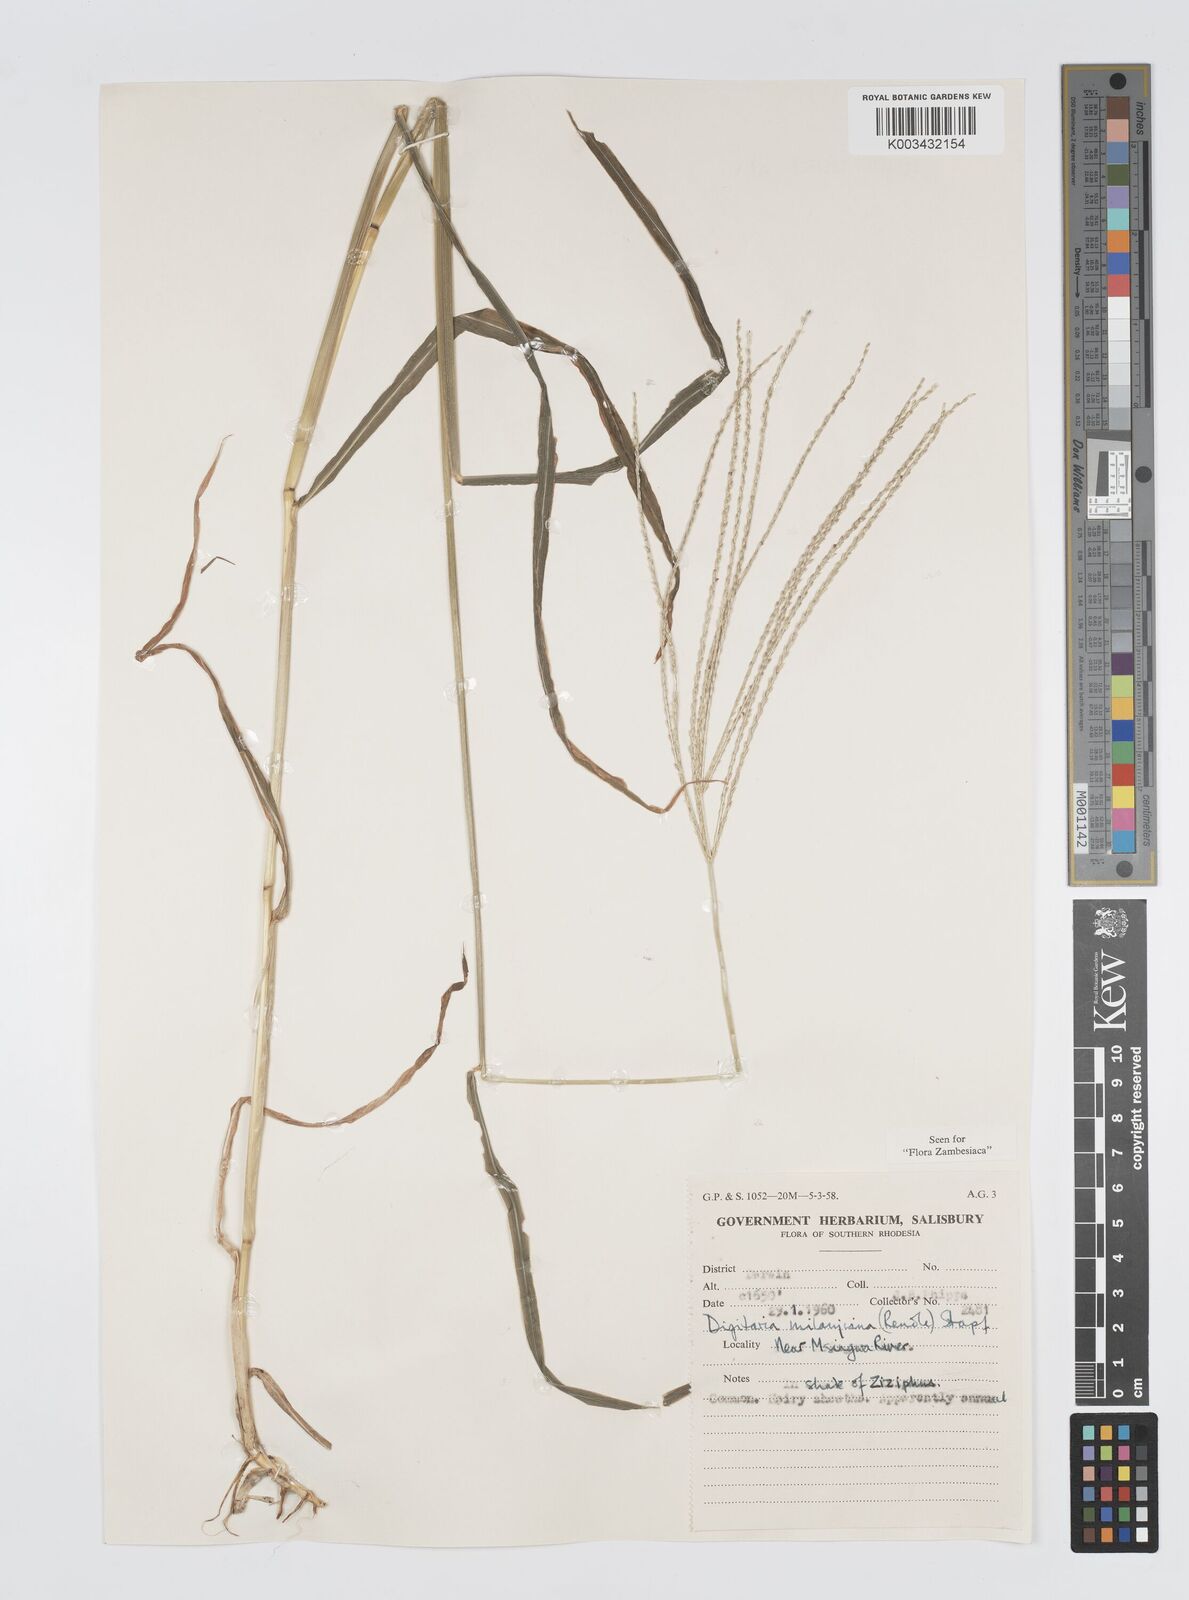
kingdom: Plantae
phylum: Tracheophyta
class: Liliopsida
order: Poales
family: Poaceae
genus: Digitaria
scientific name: Digitaria milanjiana
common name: Madagascar crabgrass
